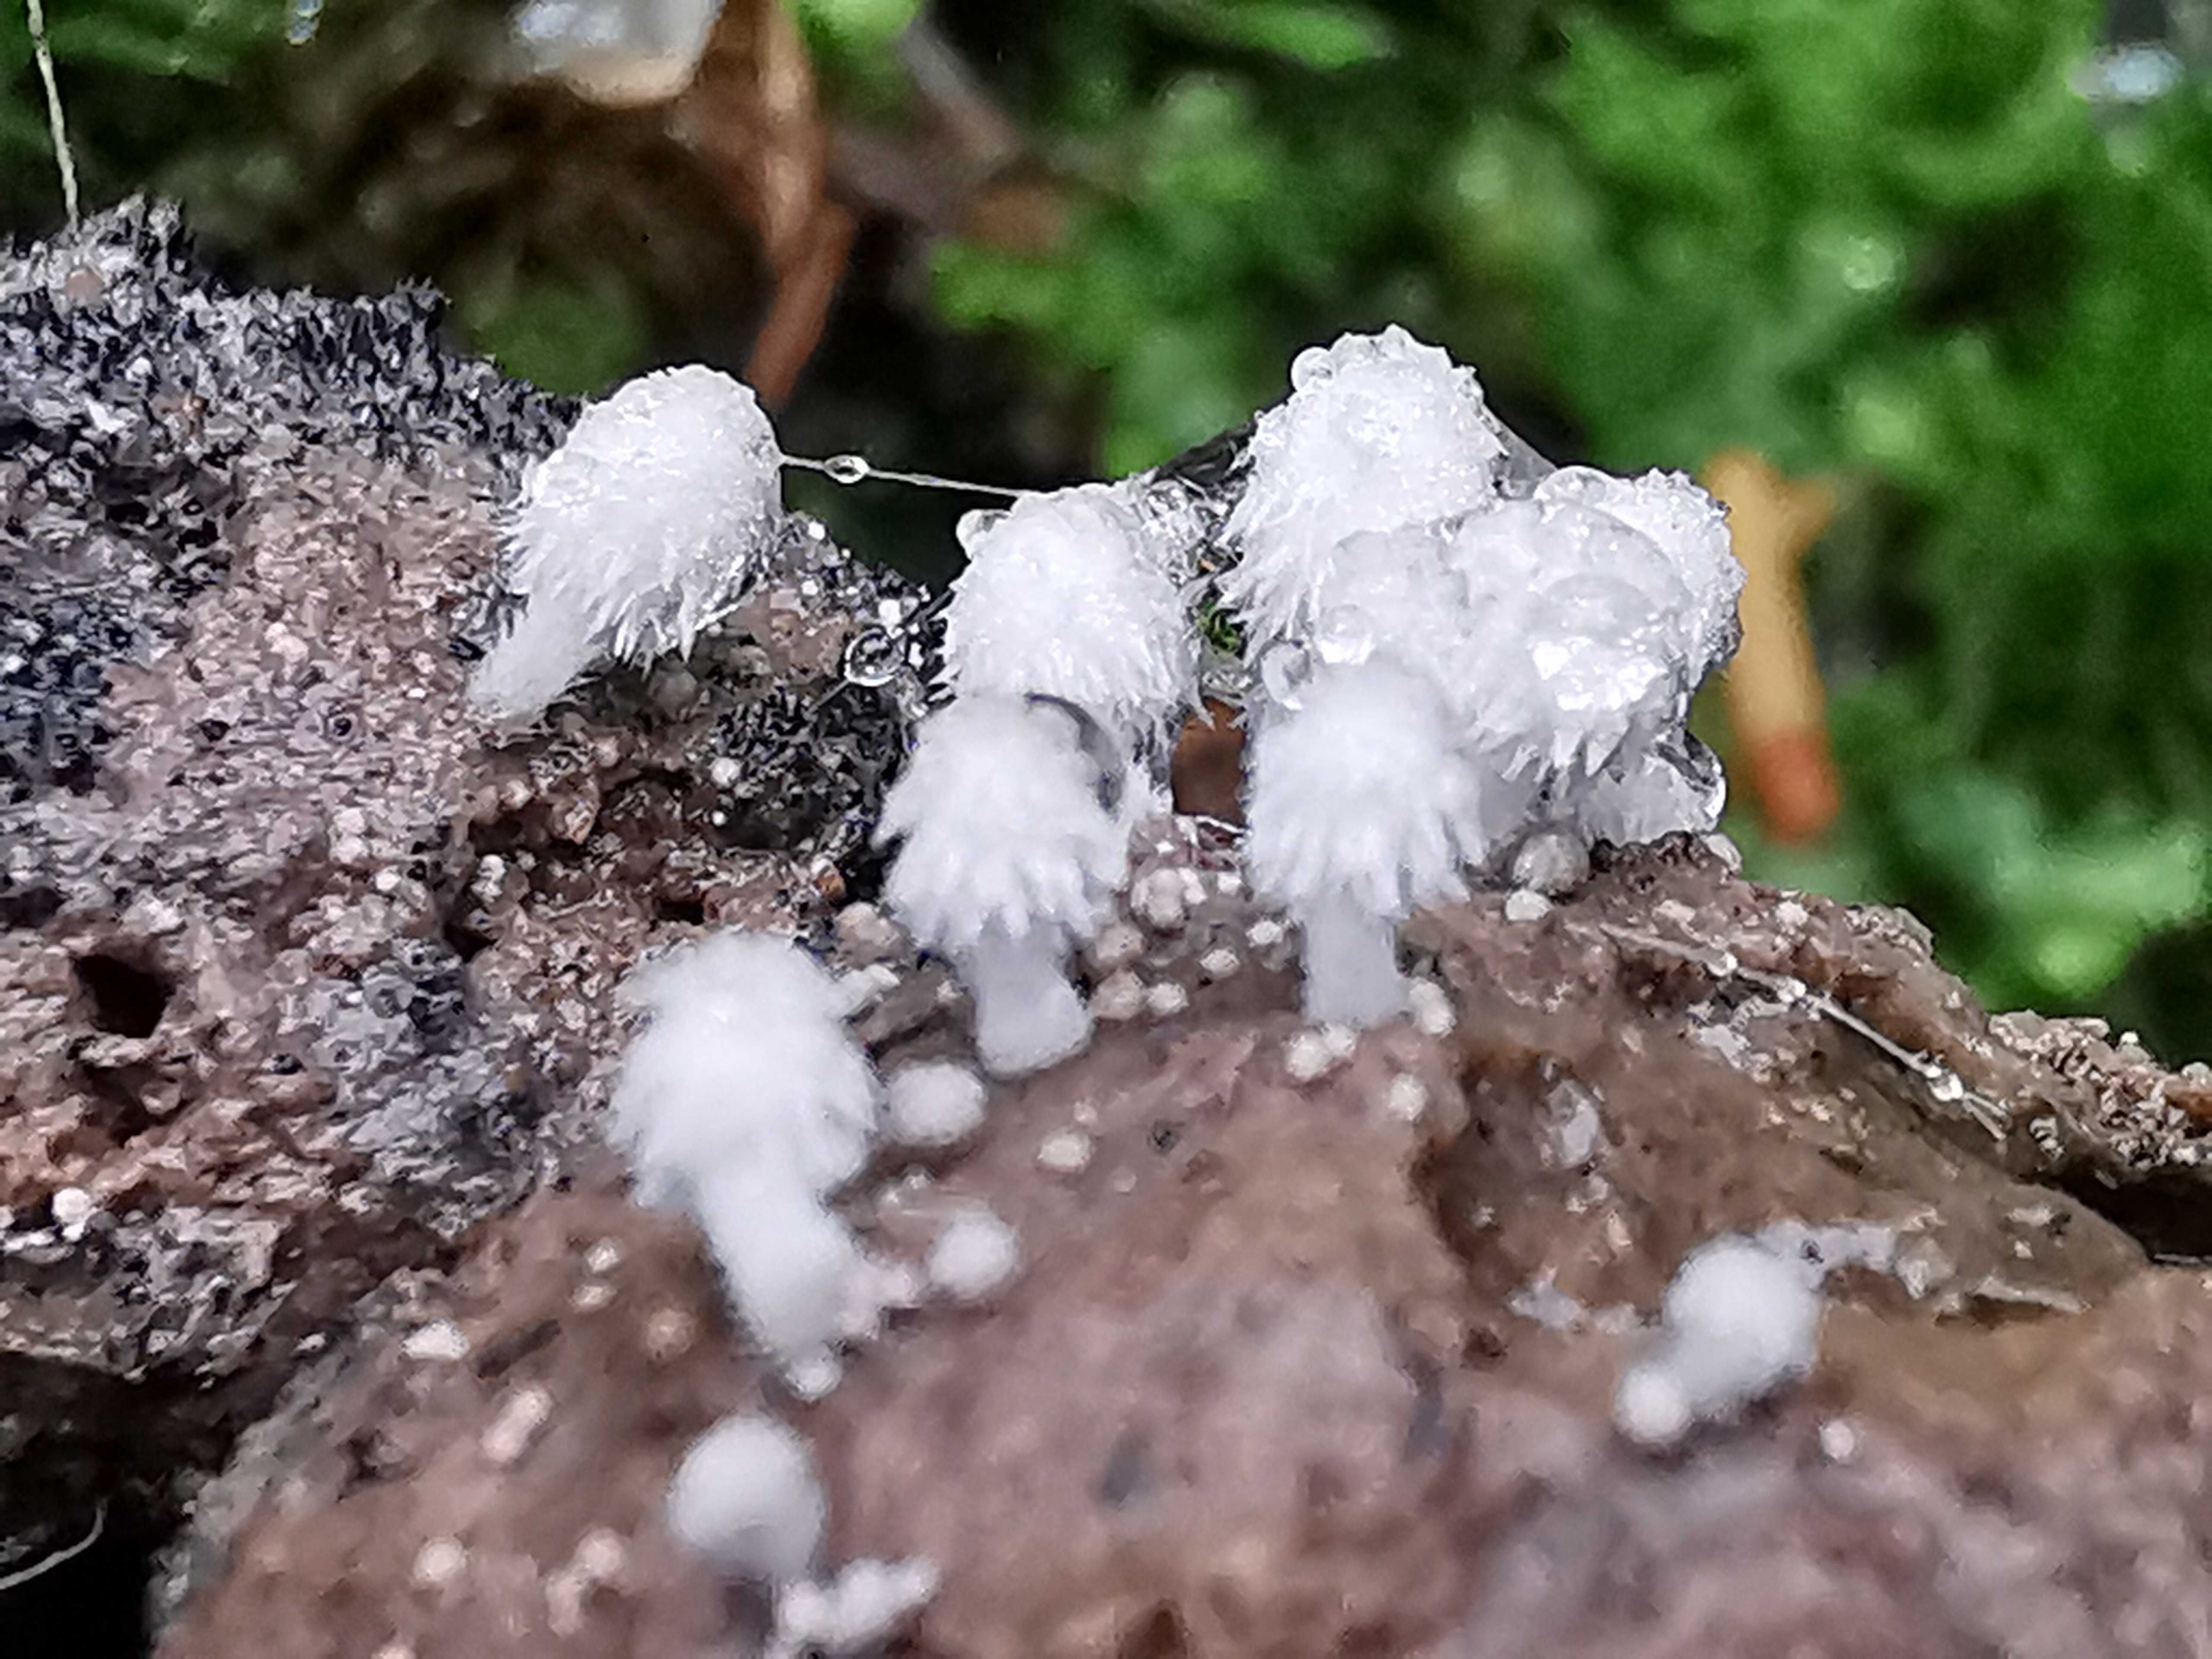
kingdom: Fungi
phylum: Basidiomycota
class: Agaricomycetes
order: Agaricales
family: Psathyrellaceae
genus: Coprinopsis
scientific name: Coprinopsis stercorea
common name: pjusket blækhat
